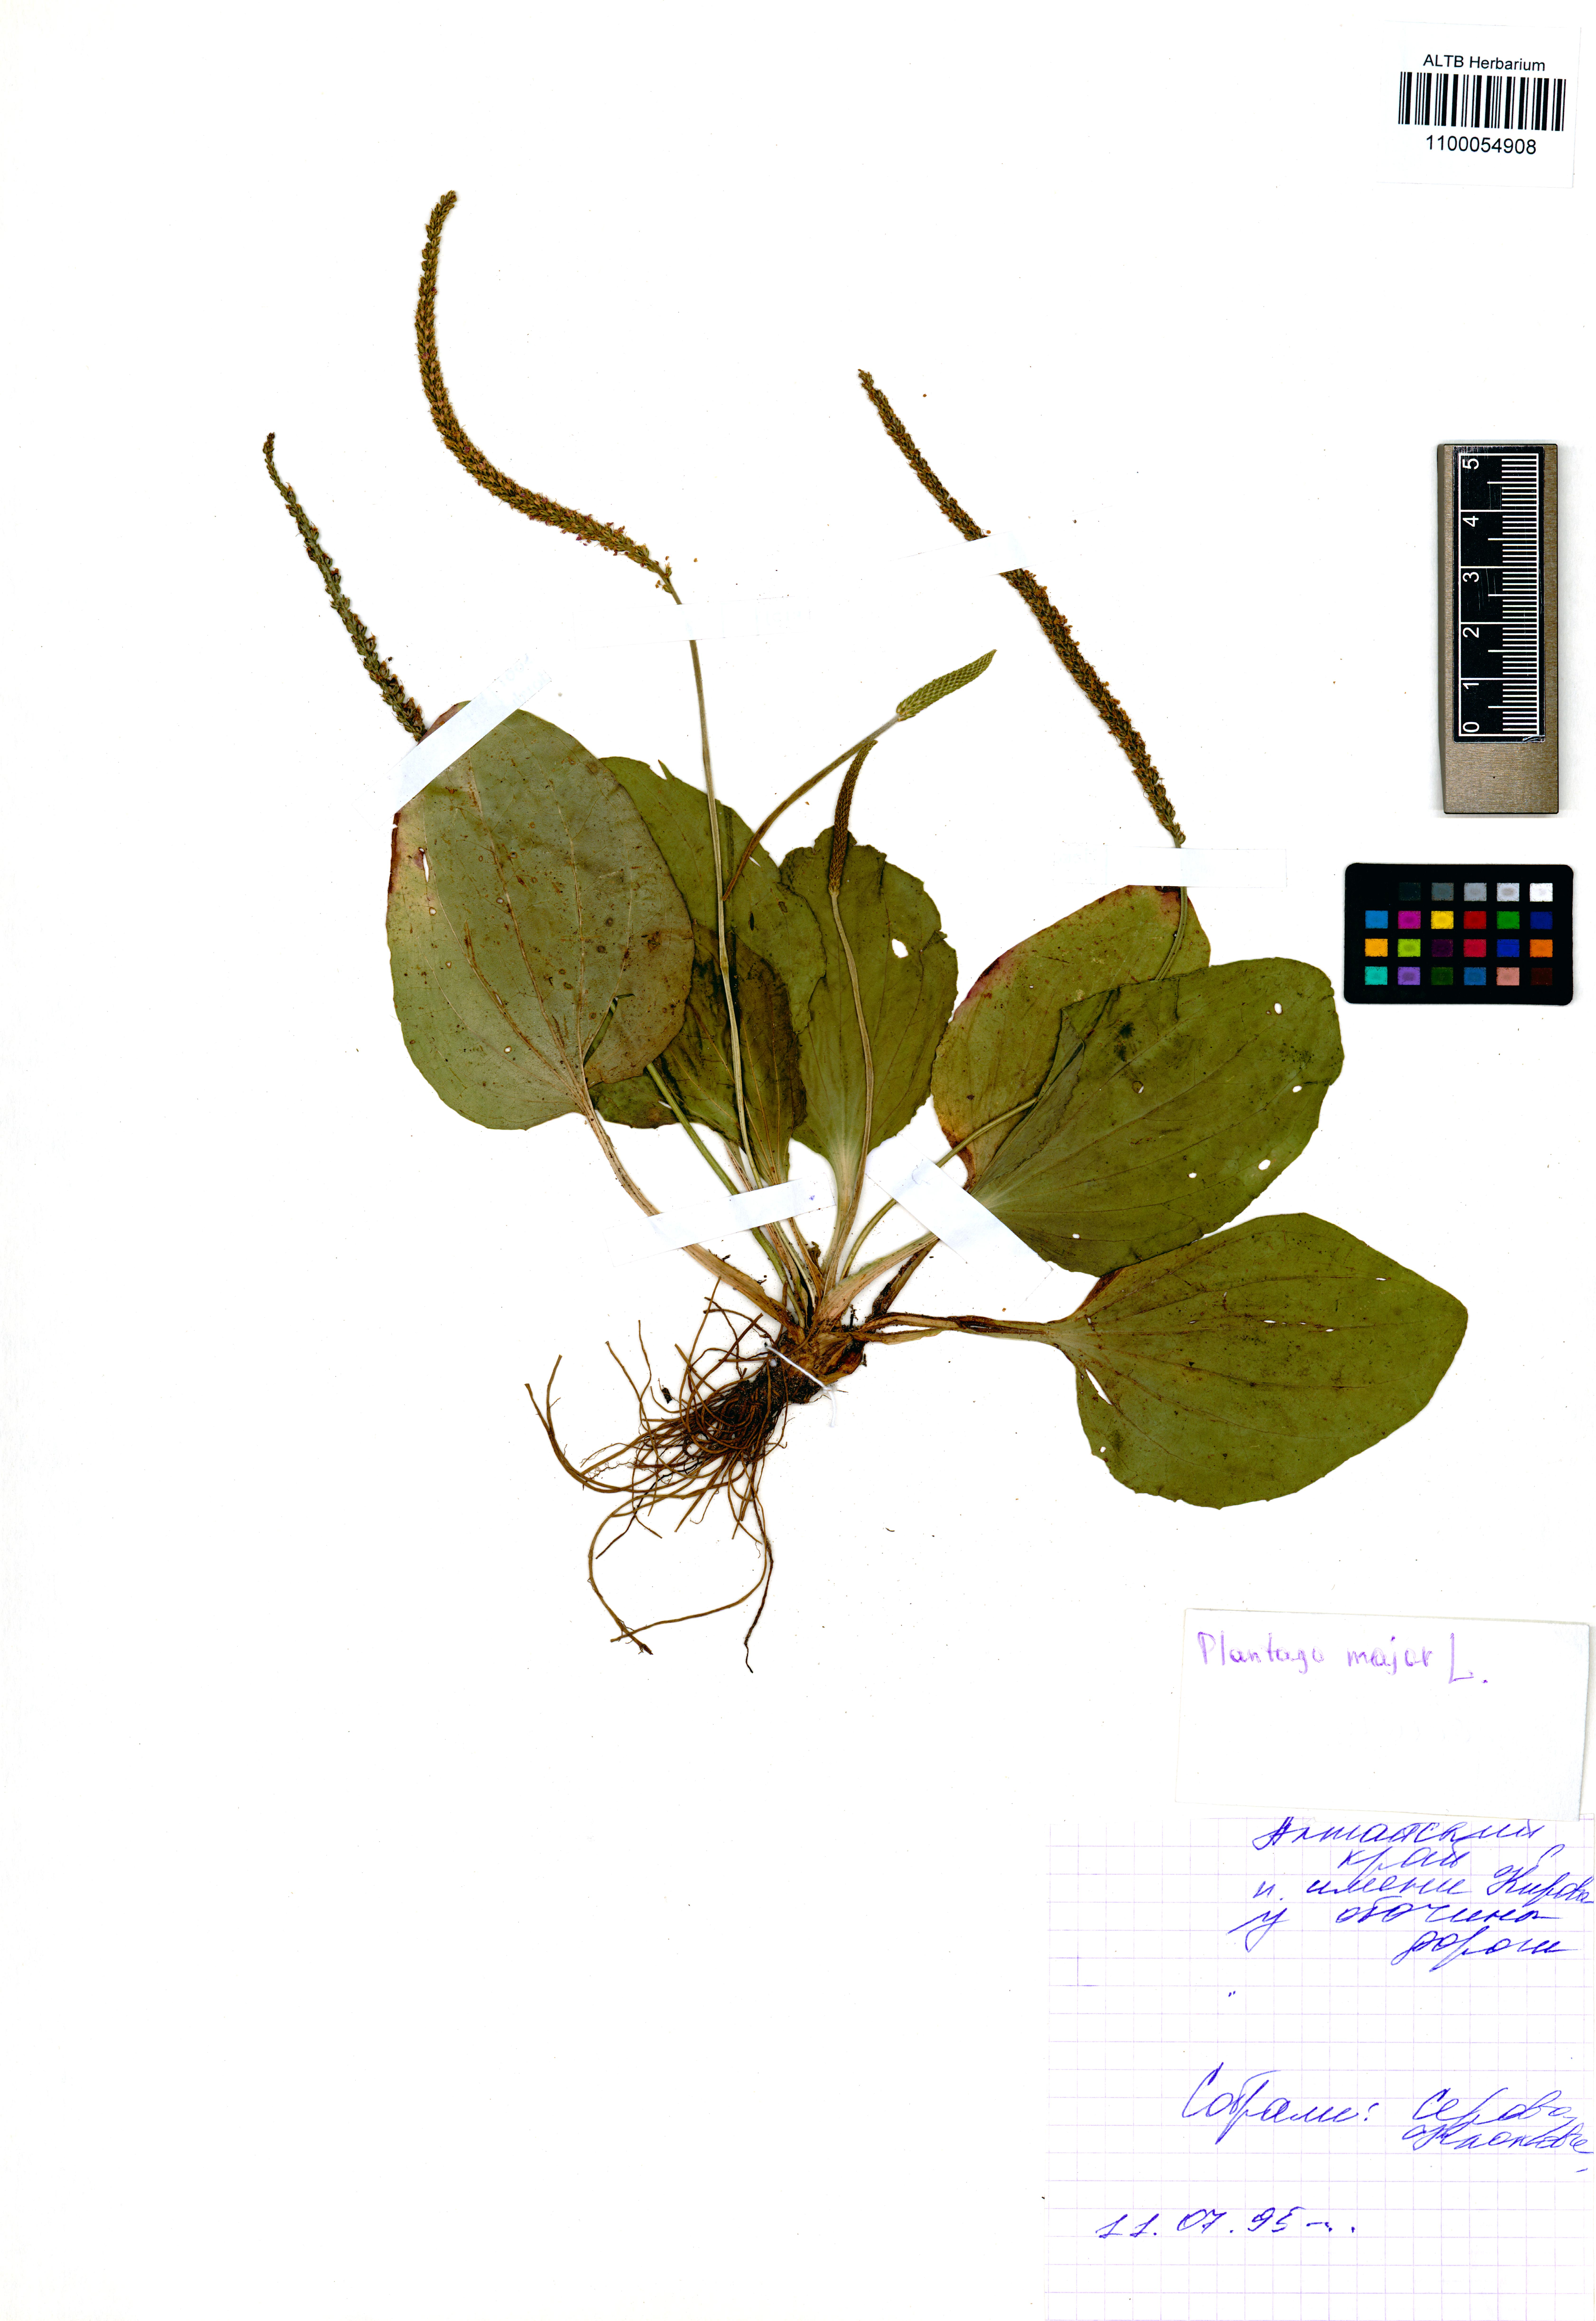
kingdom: Plantae
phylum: Tracheophyta
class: Magnoliopsida
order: Lamiales
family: Plantaginaceae
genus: Plantago
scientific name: Plantago major
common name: Common plantain
